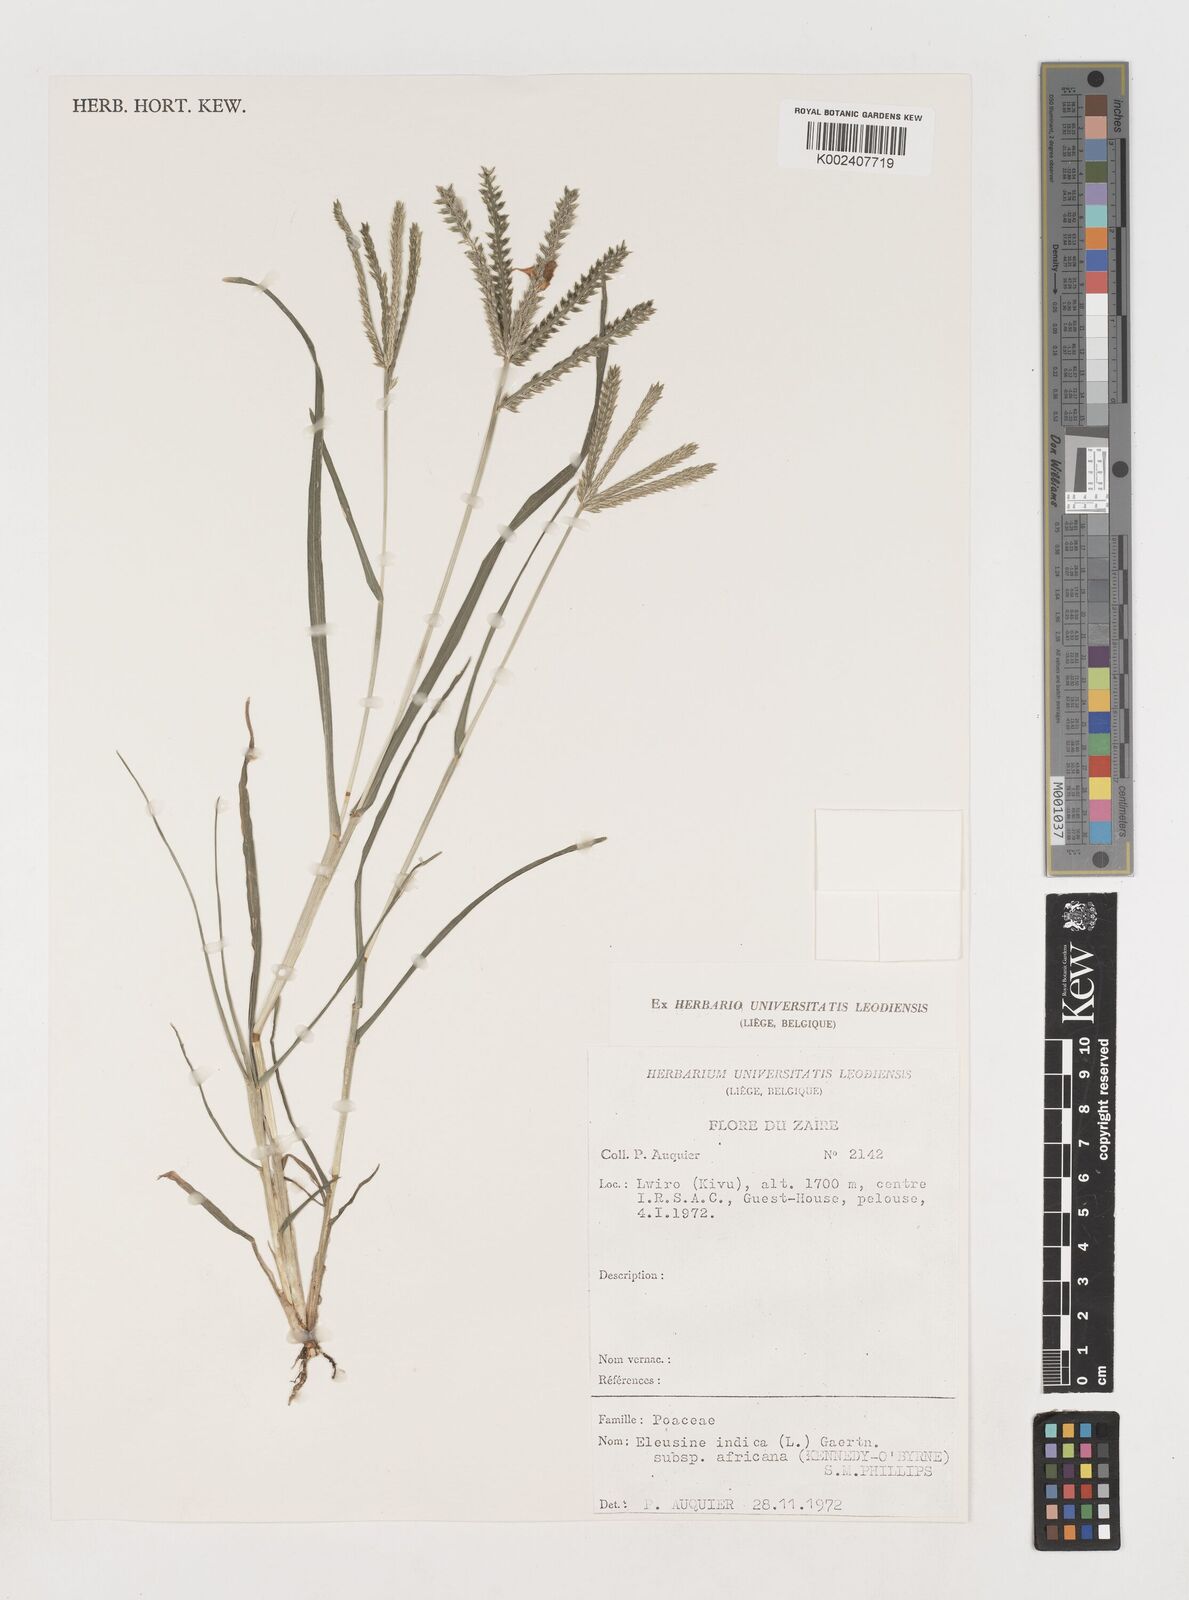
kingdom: Plantae
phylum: Tracheophyta
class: Liliopsida
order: Poales
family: Poaceae
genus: Eleusine
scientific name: Eleusine indica
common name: Yard-grass
